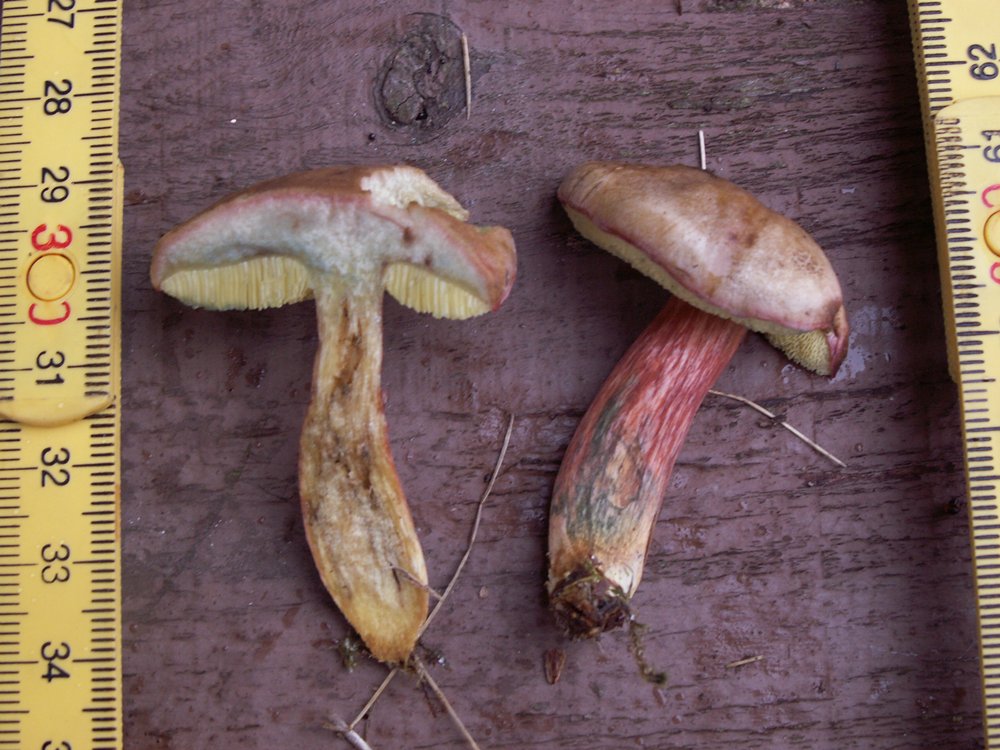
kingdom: Fungi
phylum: Basidiomycota
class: Agaricomycetes
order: Boletales
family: Boletaceae
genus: Xerocomellus
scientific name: Xerocomellus cisalpinus
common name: finsprukken rørhat
